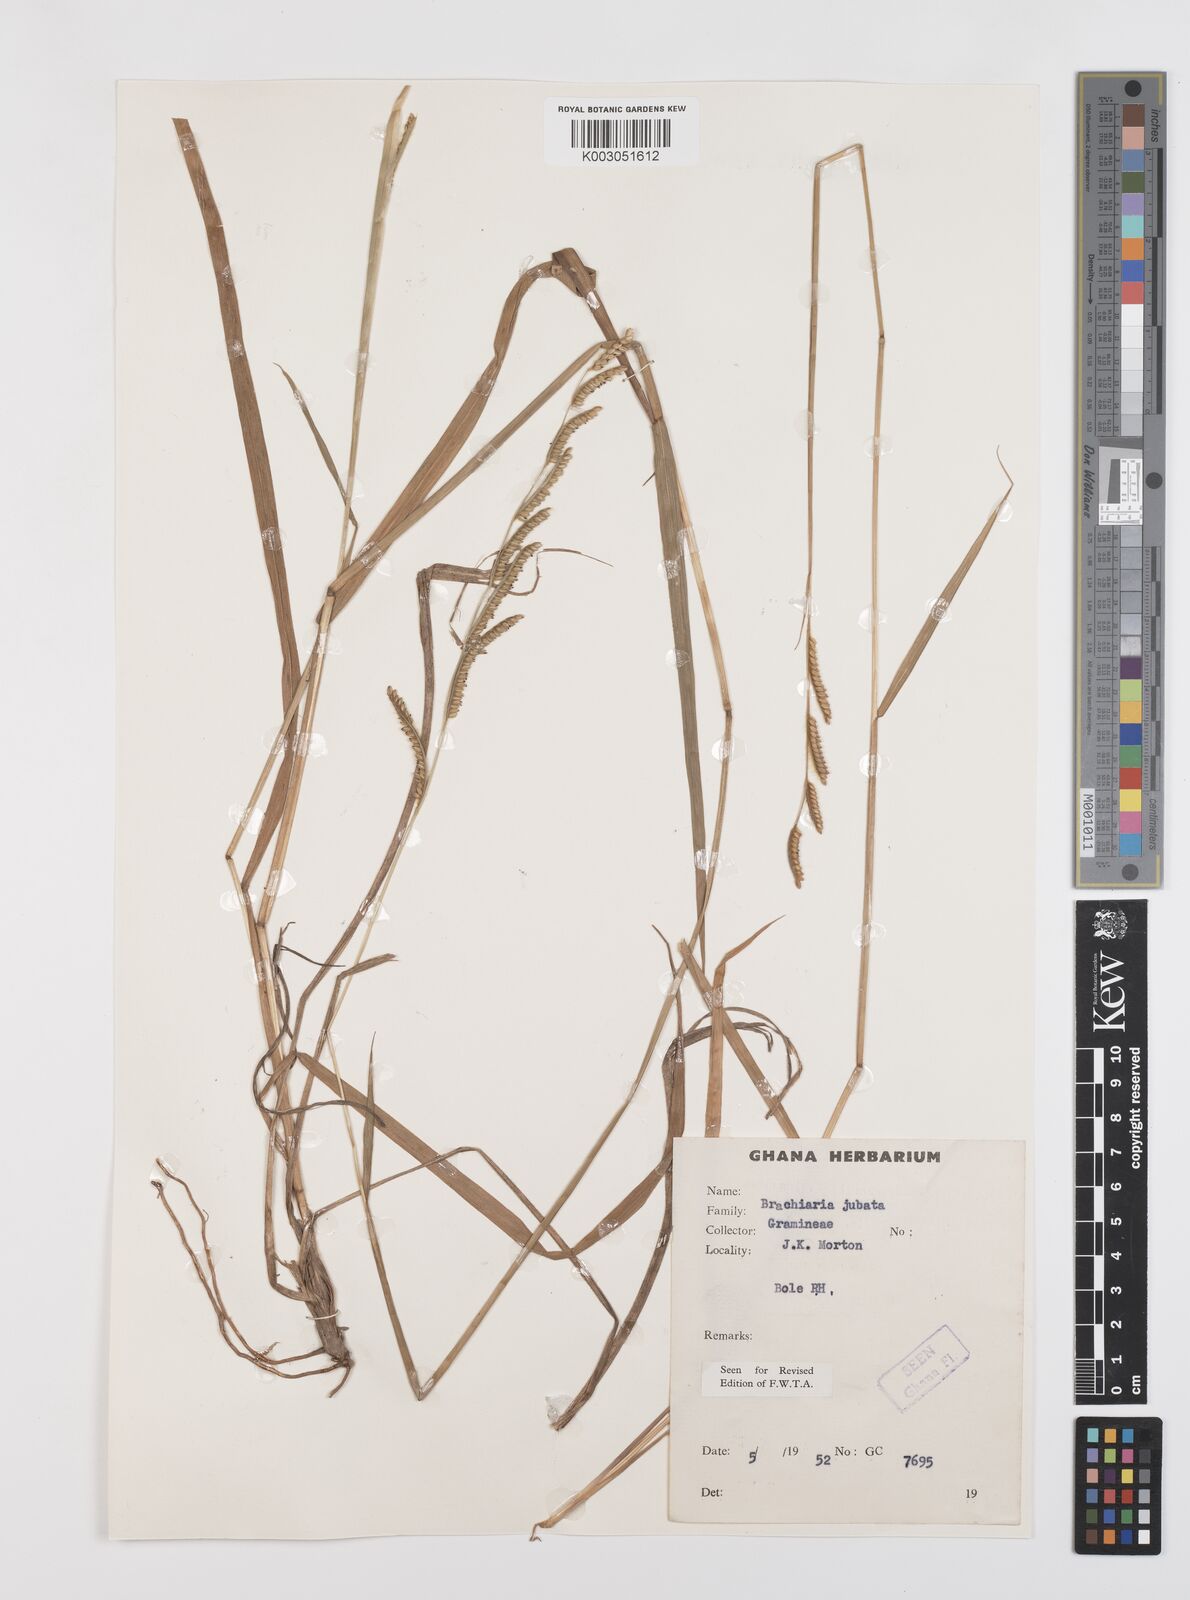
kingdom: Plantae
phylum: Tracheophyta
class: Liliopsida
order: Poales
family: Poaceae
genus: Urochloa
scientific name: Urochloa jubata
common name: Buffalograss
